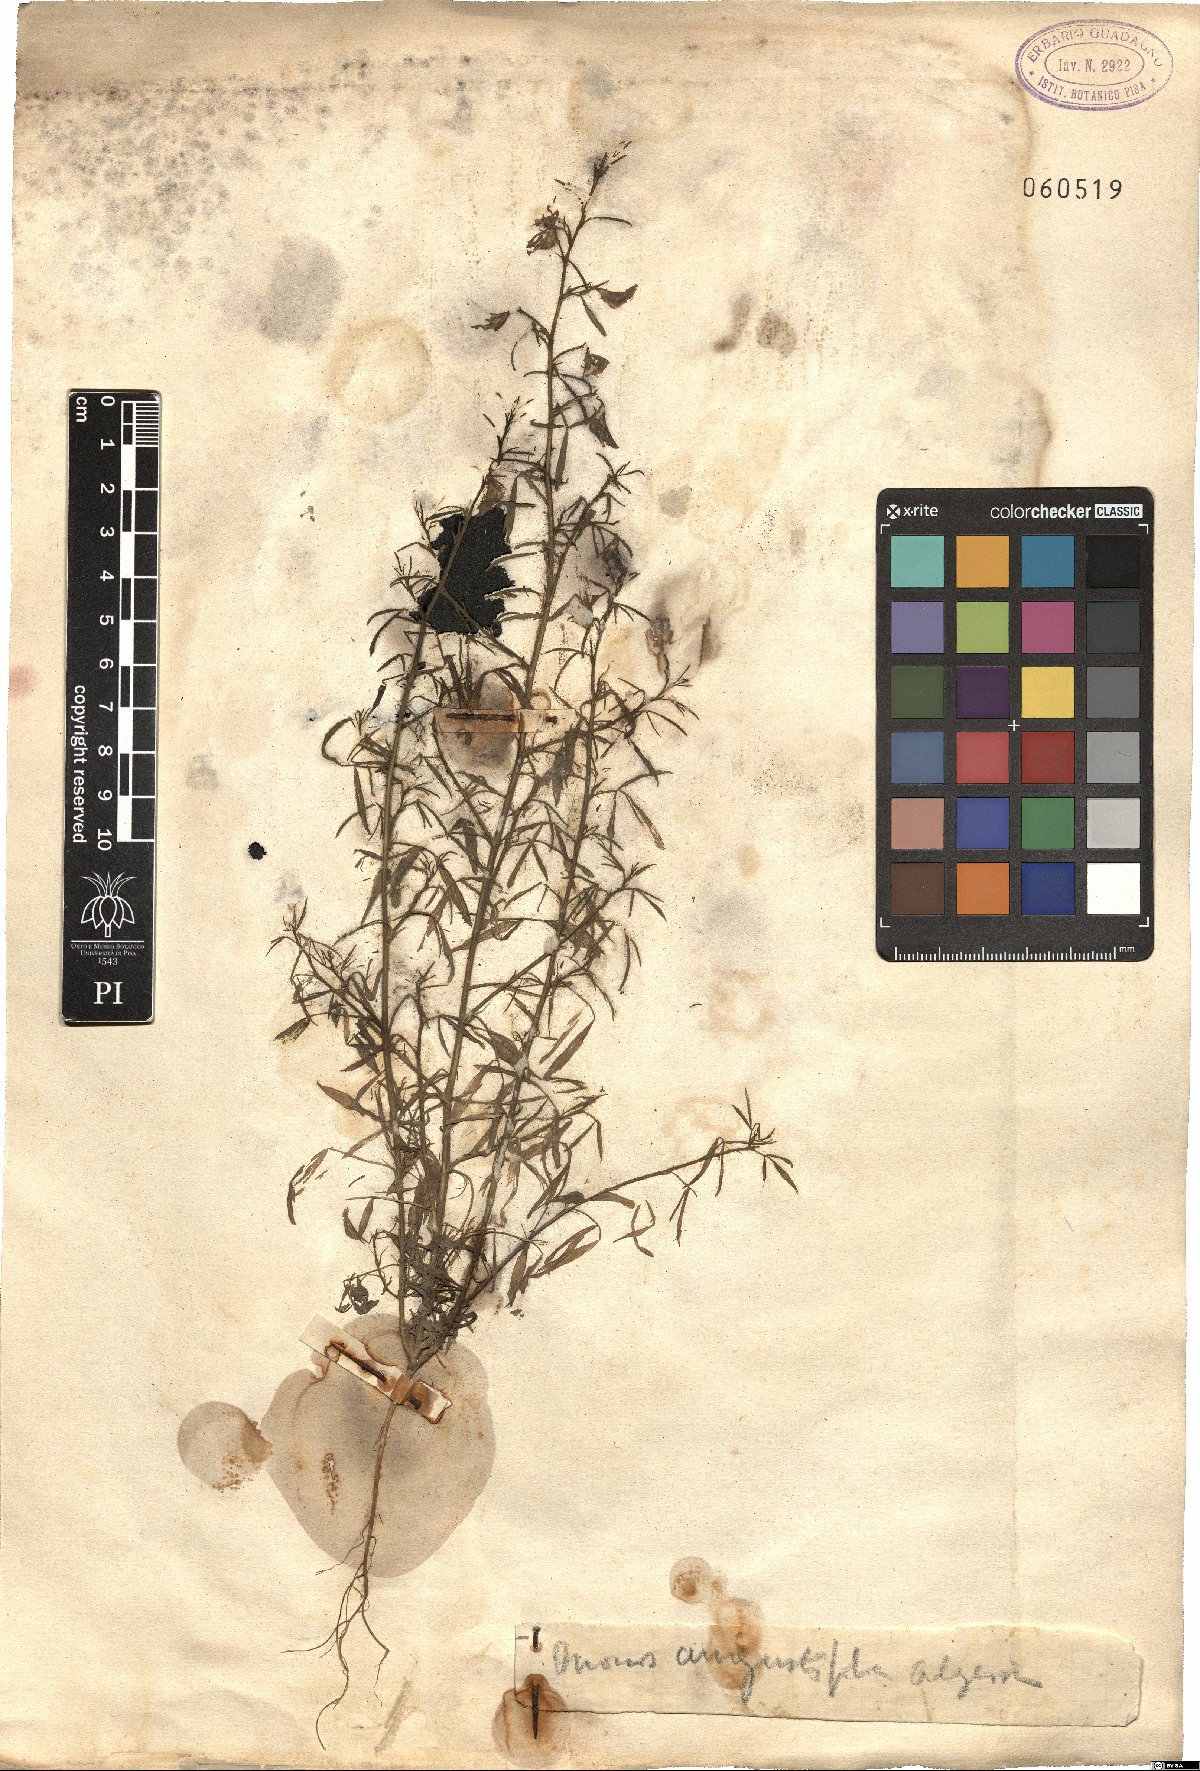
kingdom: Plantae
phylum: Tracheophyta
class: Magnoliopsida
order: Fabales
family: Fabaceae
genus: Ononis
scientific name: Ononis angustissima
